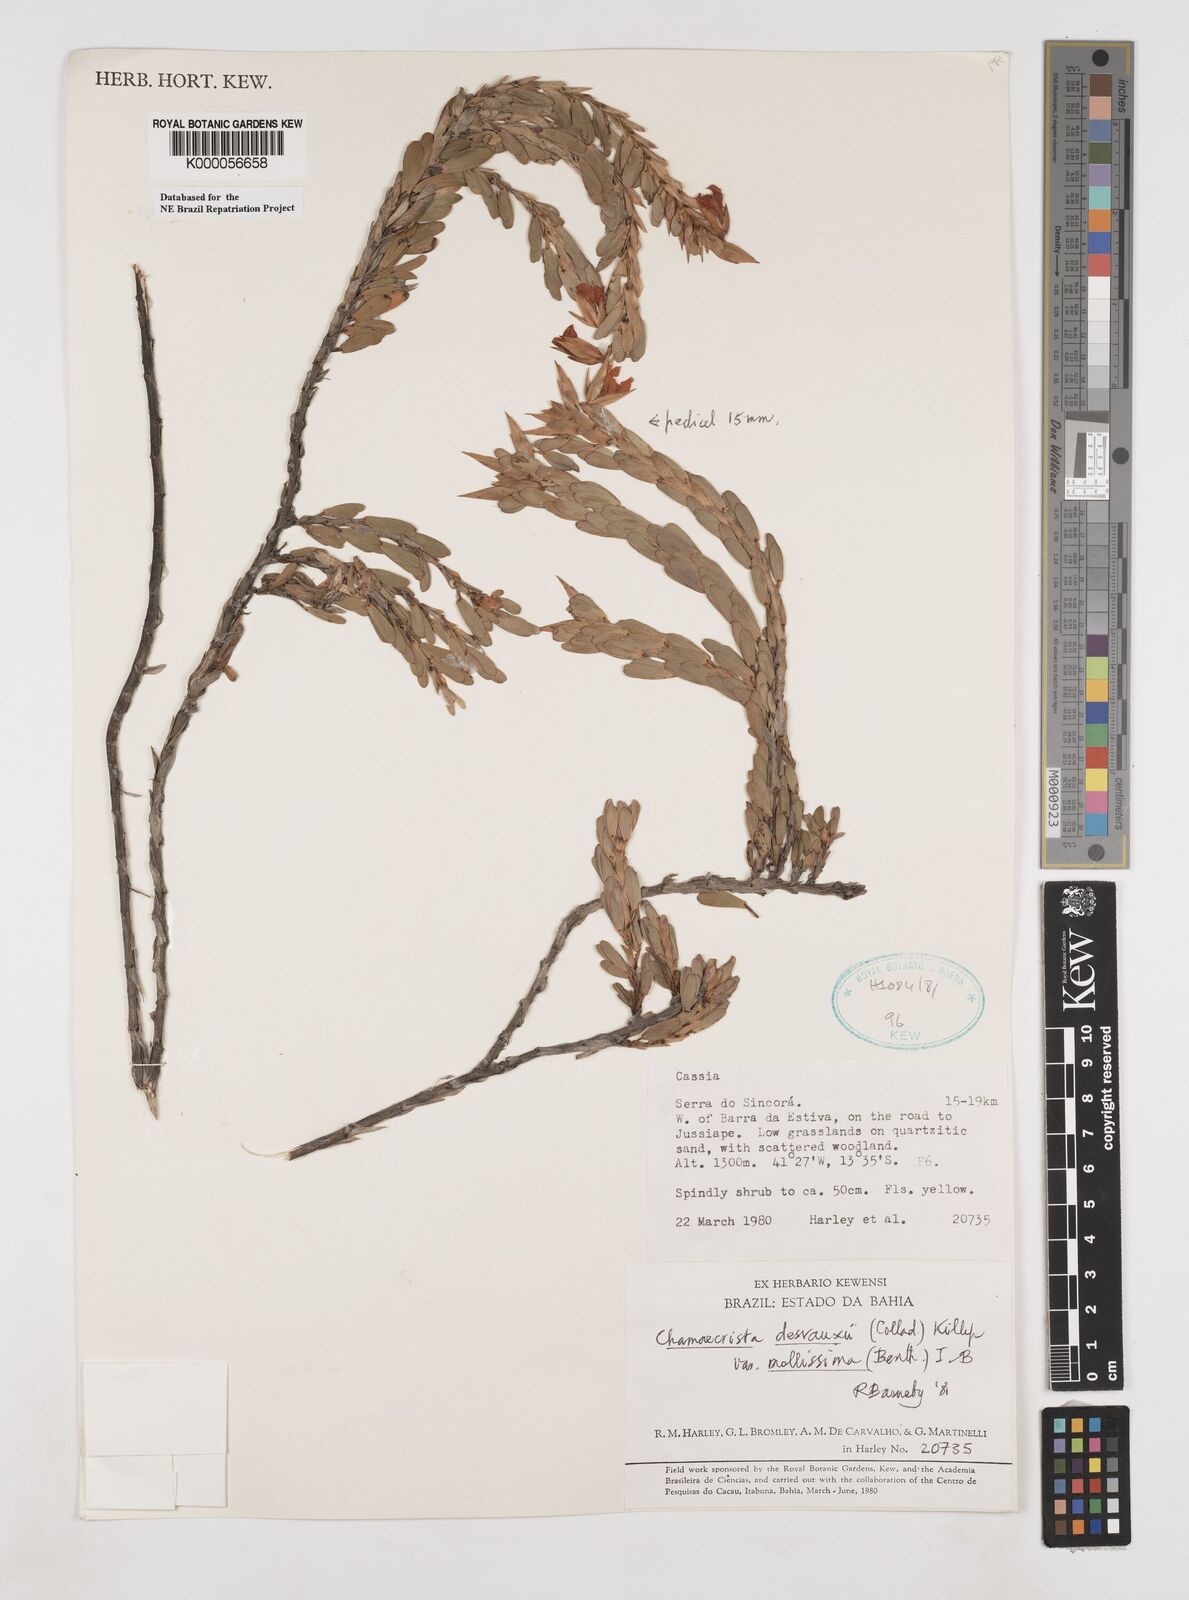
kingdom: Plantae
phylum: Tracheophyta
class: Magnoliopsida
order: Fabales
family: Fabaceae
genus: Chamaecrista
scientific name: Chamaecrista desvauxii
